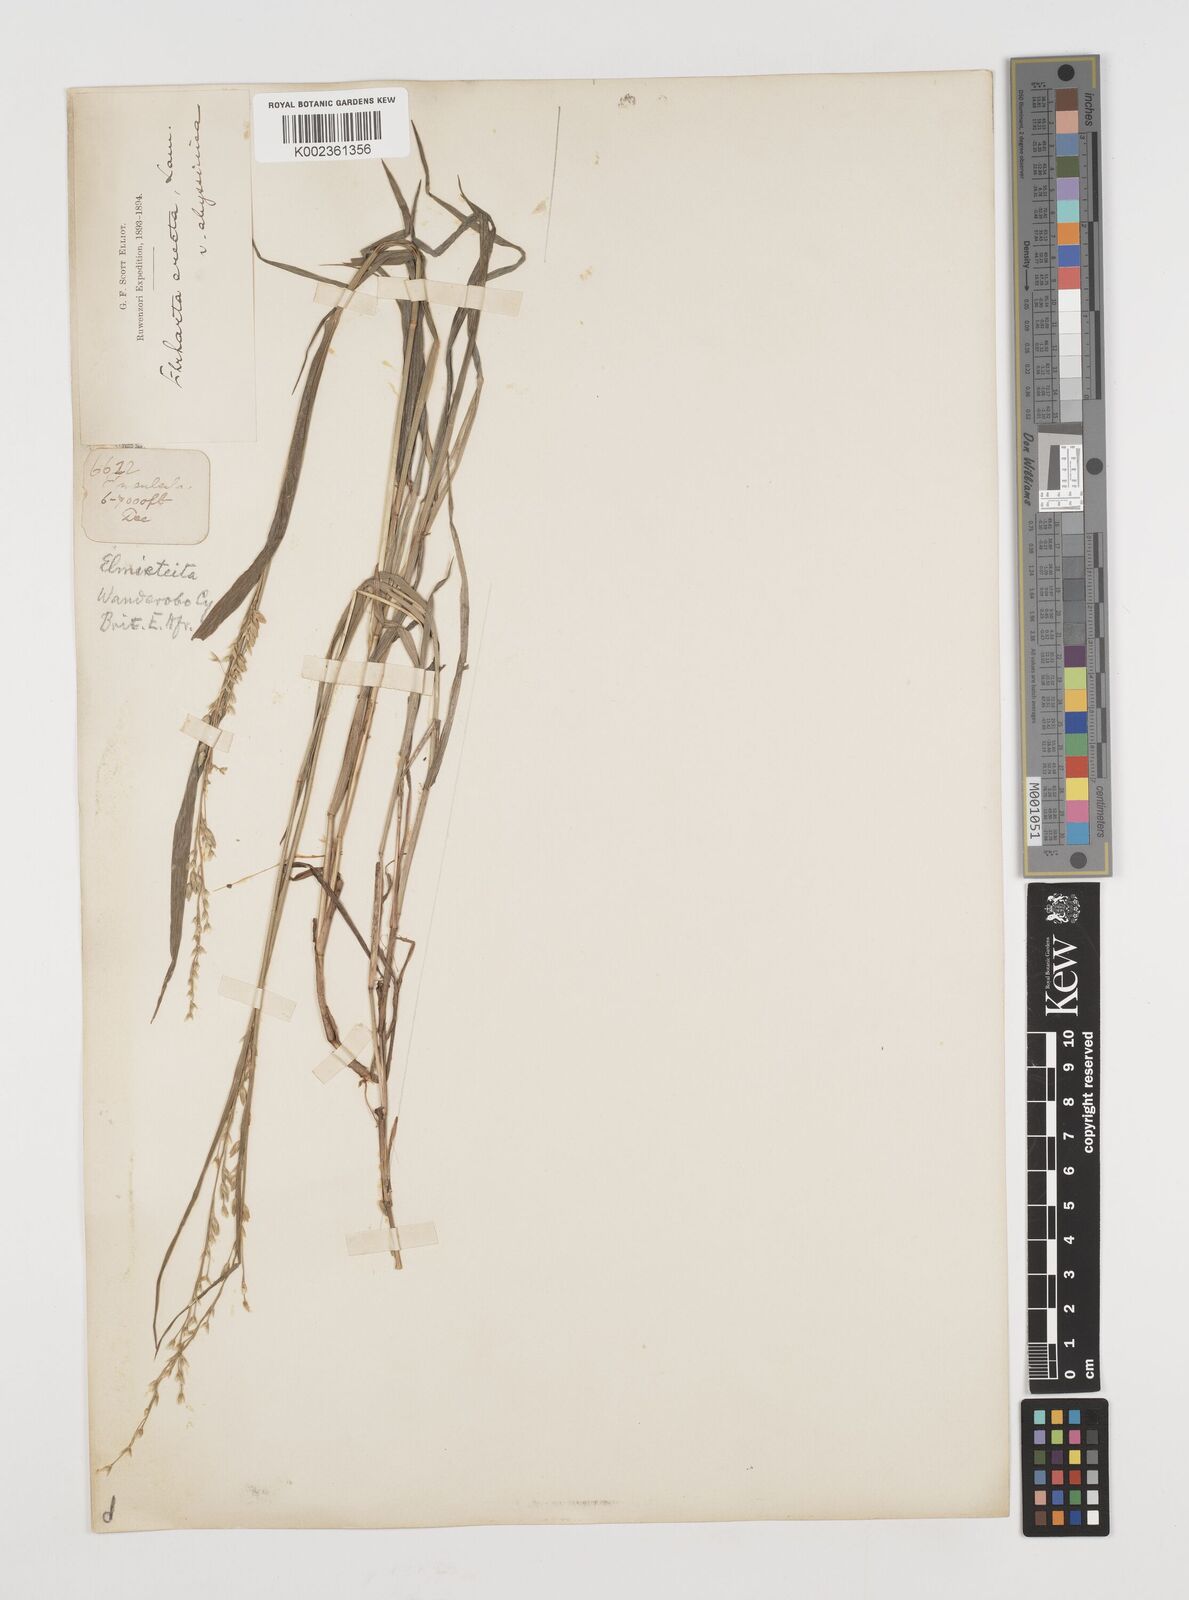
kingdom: Plantae
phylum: Tracheophyta
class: Liliopsida
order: Poales
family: Poaceae
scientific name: Poaceae
